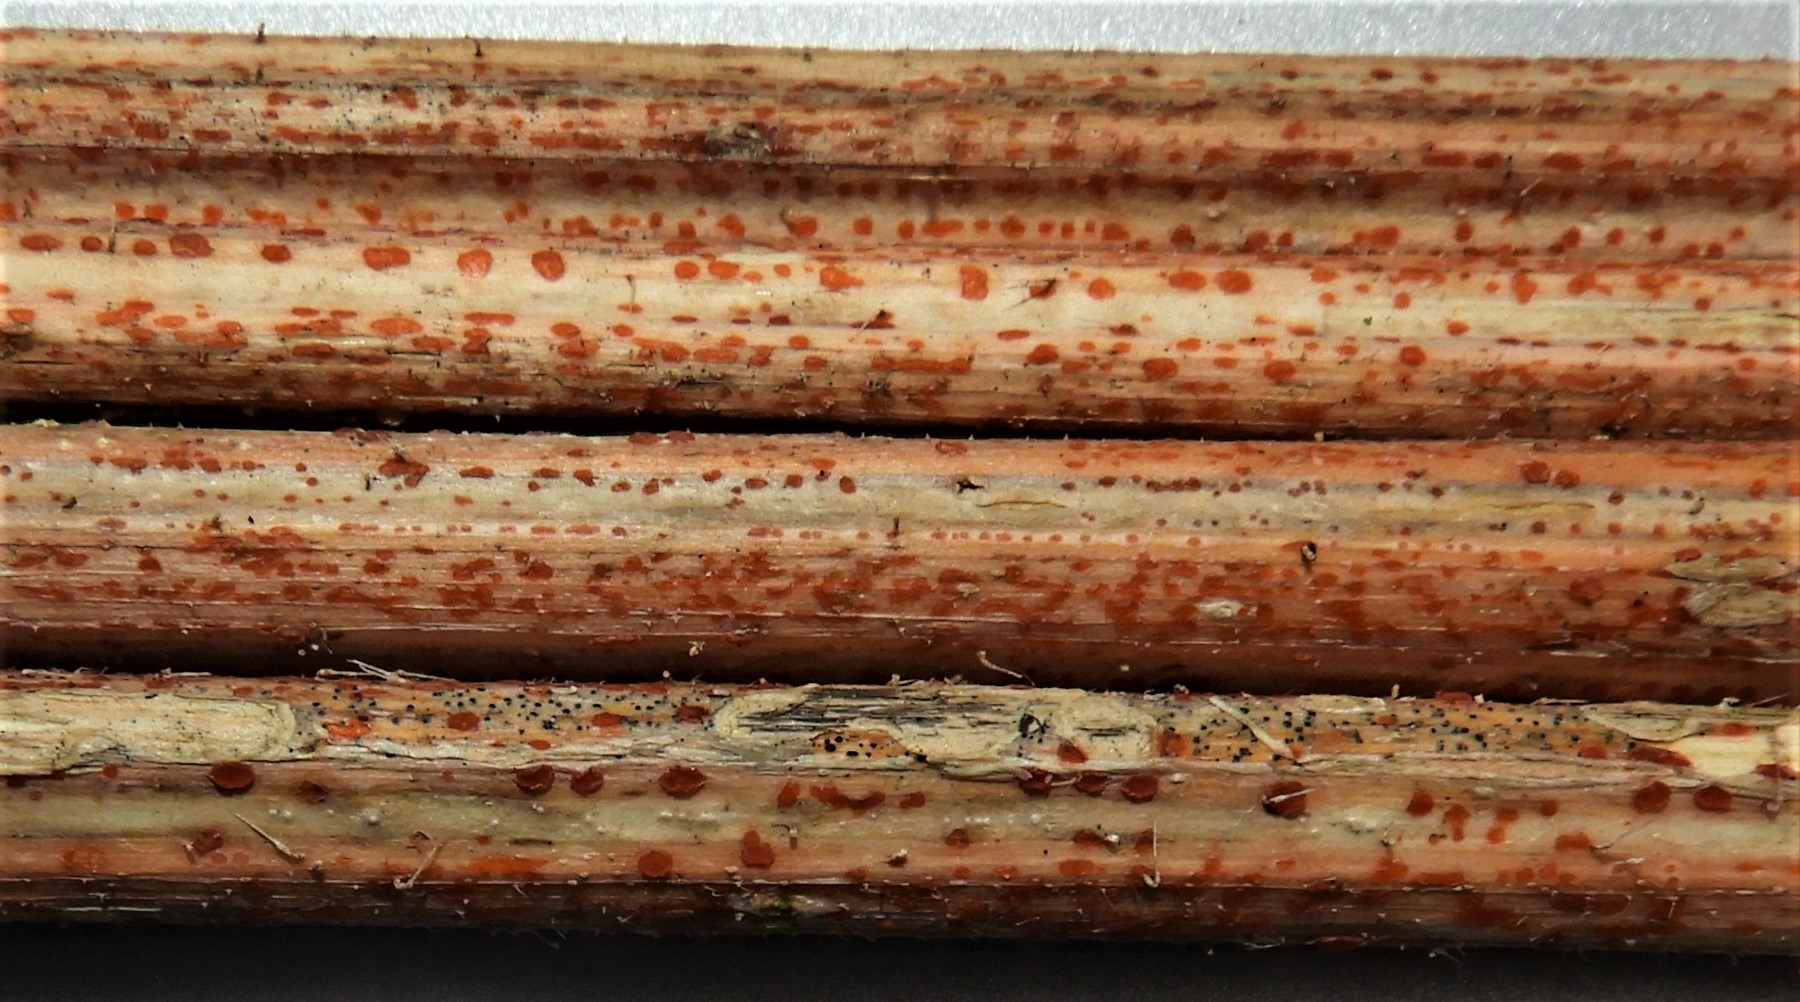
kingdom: Fungi
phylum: Ascomycota
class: Leotiomycetes
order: Helotiales
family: Calloriaceae
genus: Calloria
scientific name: Calloria urticae
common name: nælde-orangeskive
